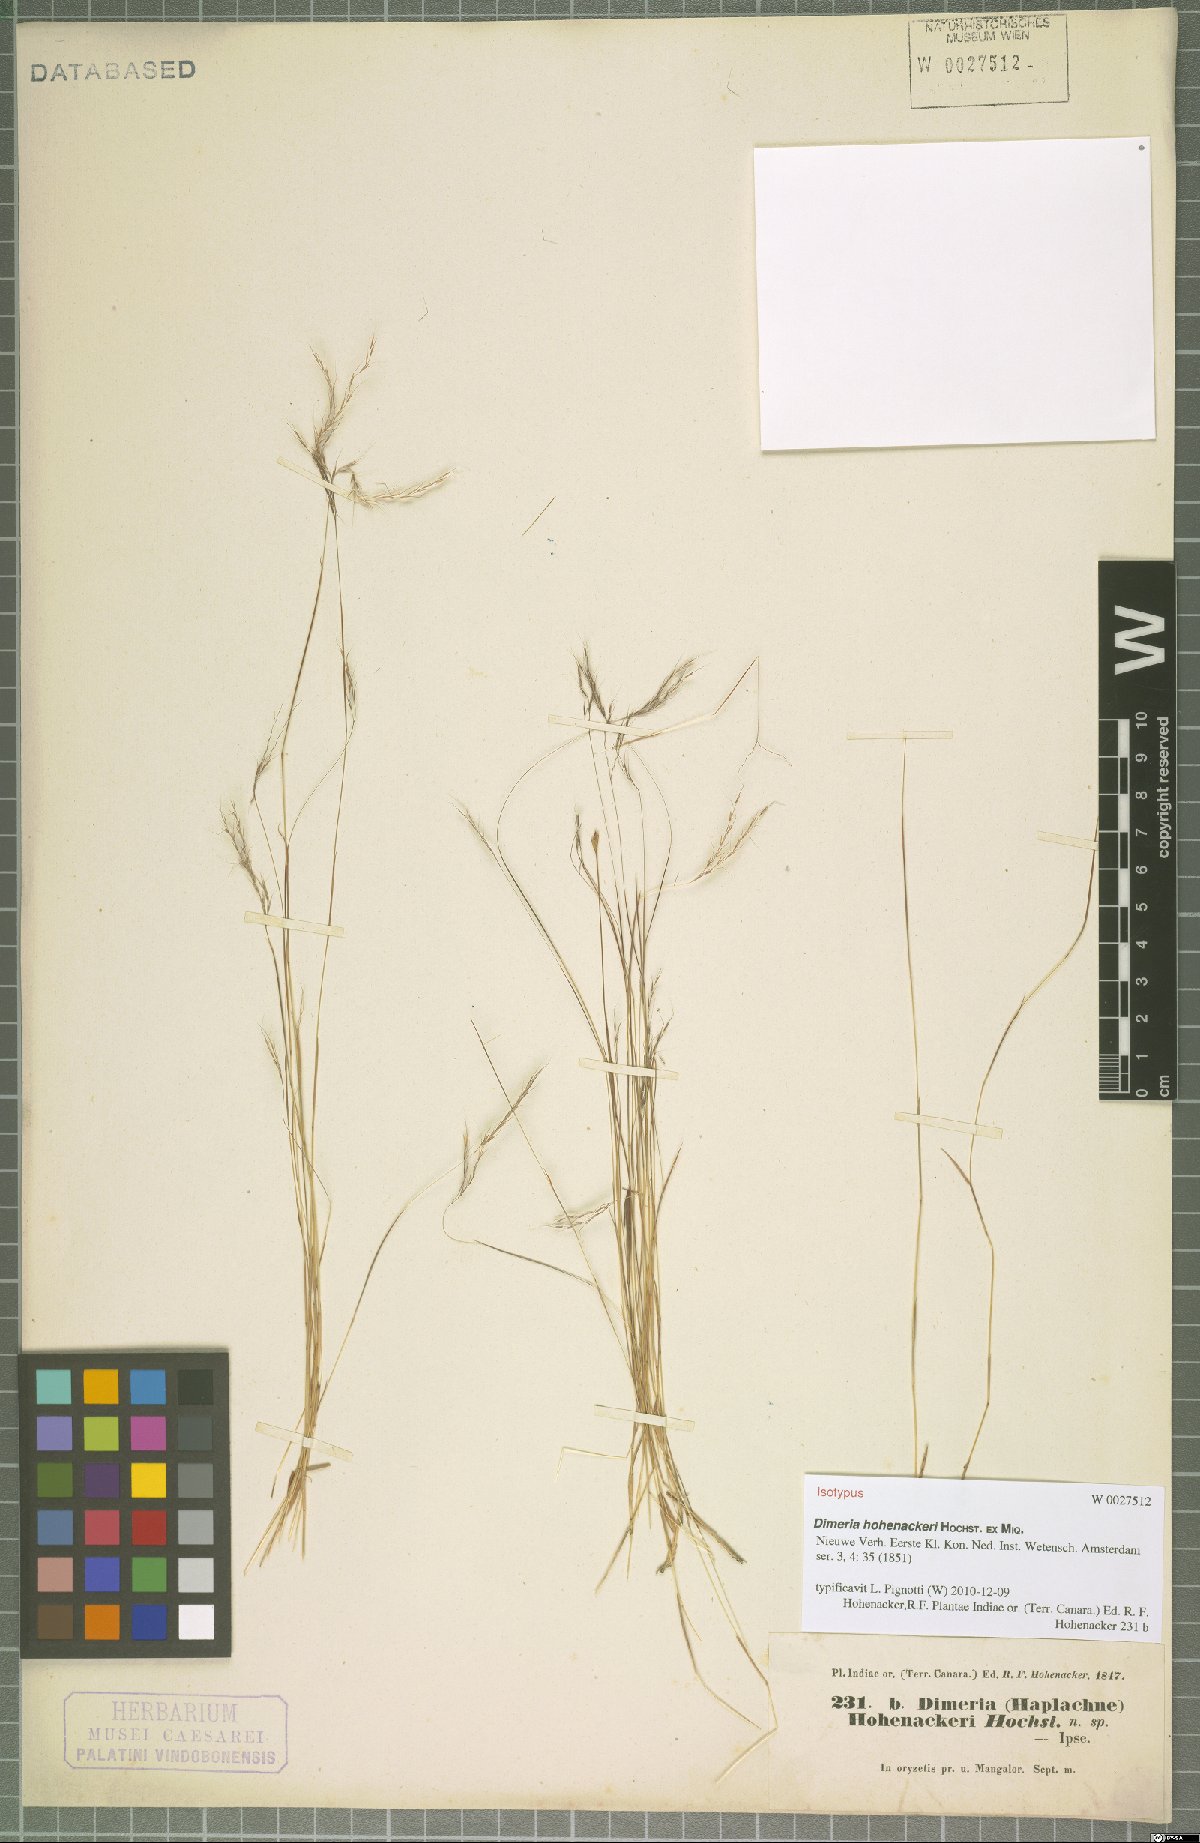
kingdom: Plantae
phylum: Tracheophyta
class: Liliopsida
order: Poales
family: Poaceae
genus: Dimeria
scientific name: Dimeria hohenackeri
